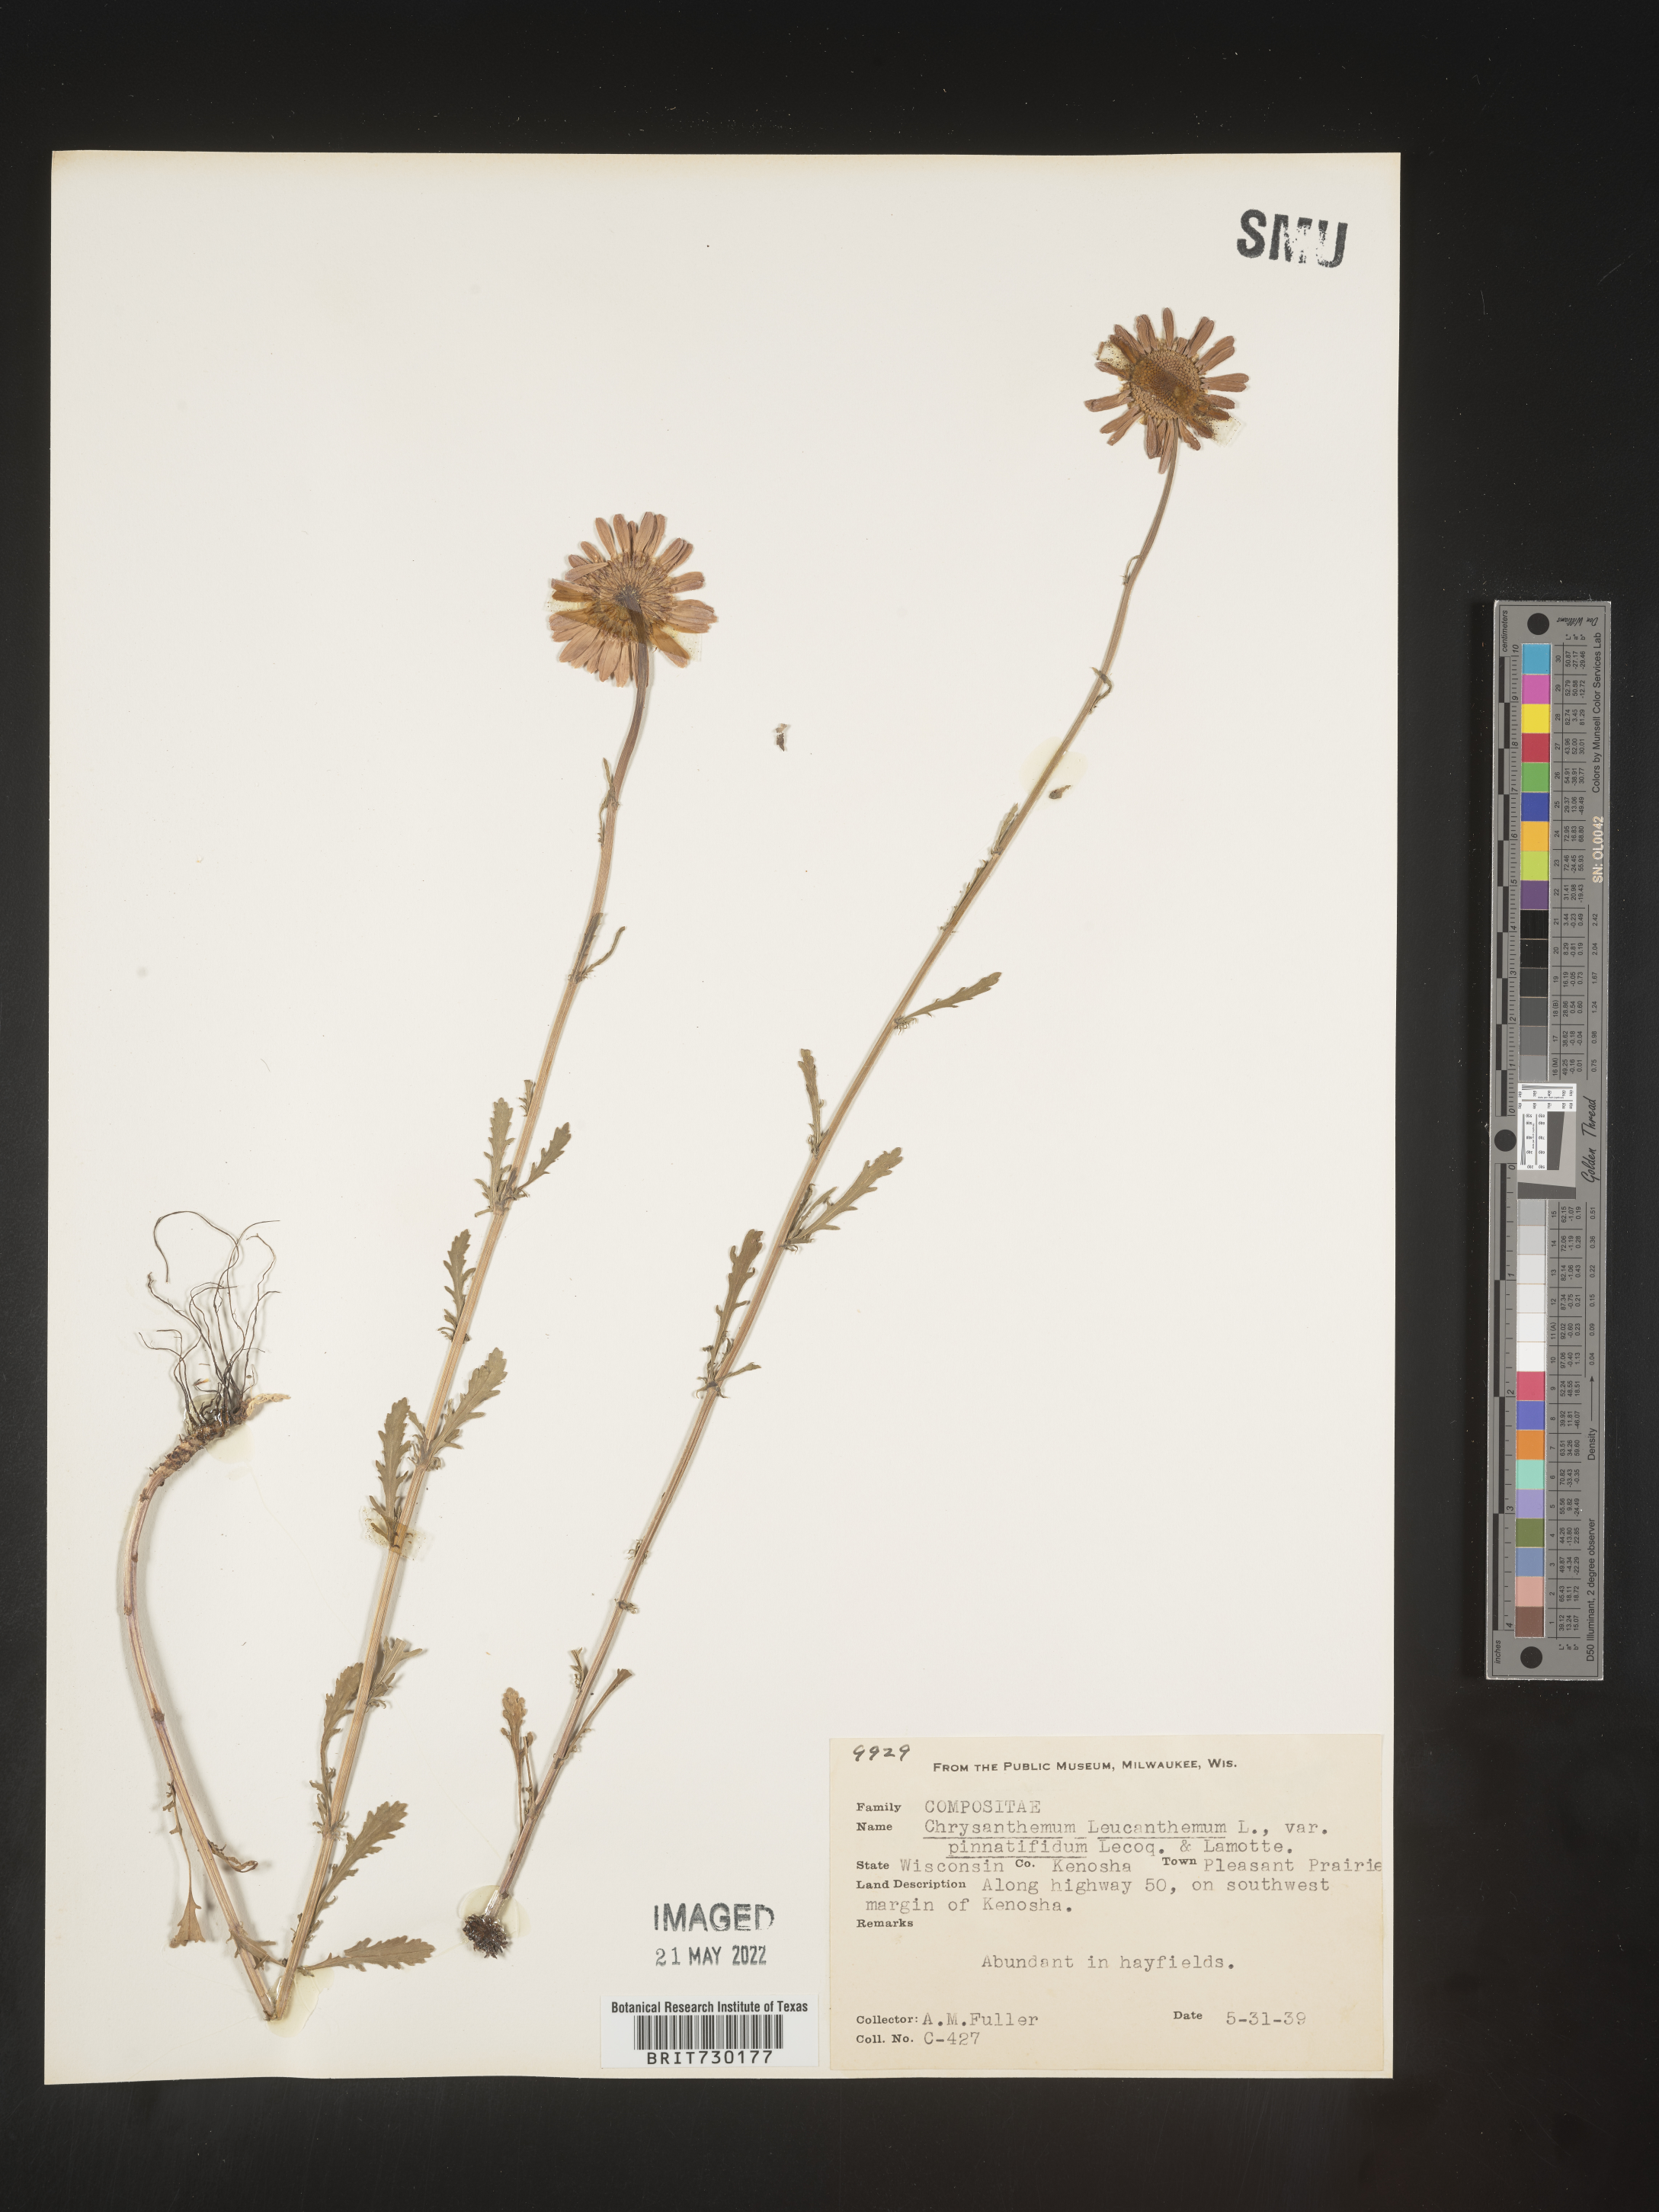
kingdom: Plantae
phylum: Tracheophyta
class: Magnoliopsida
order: Asterales
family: Asteraceae
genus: Leucanthemum
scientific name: Leucanthemum vulgare
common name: Oxeye daisy
